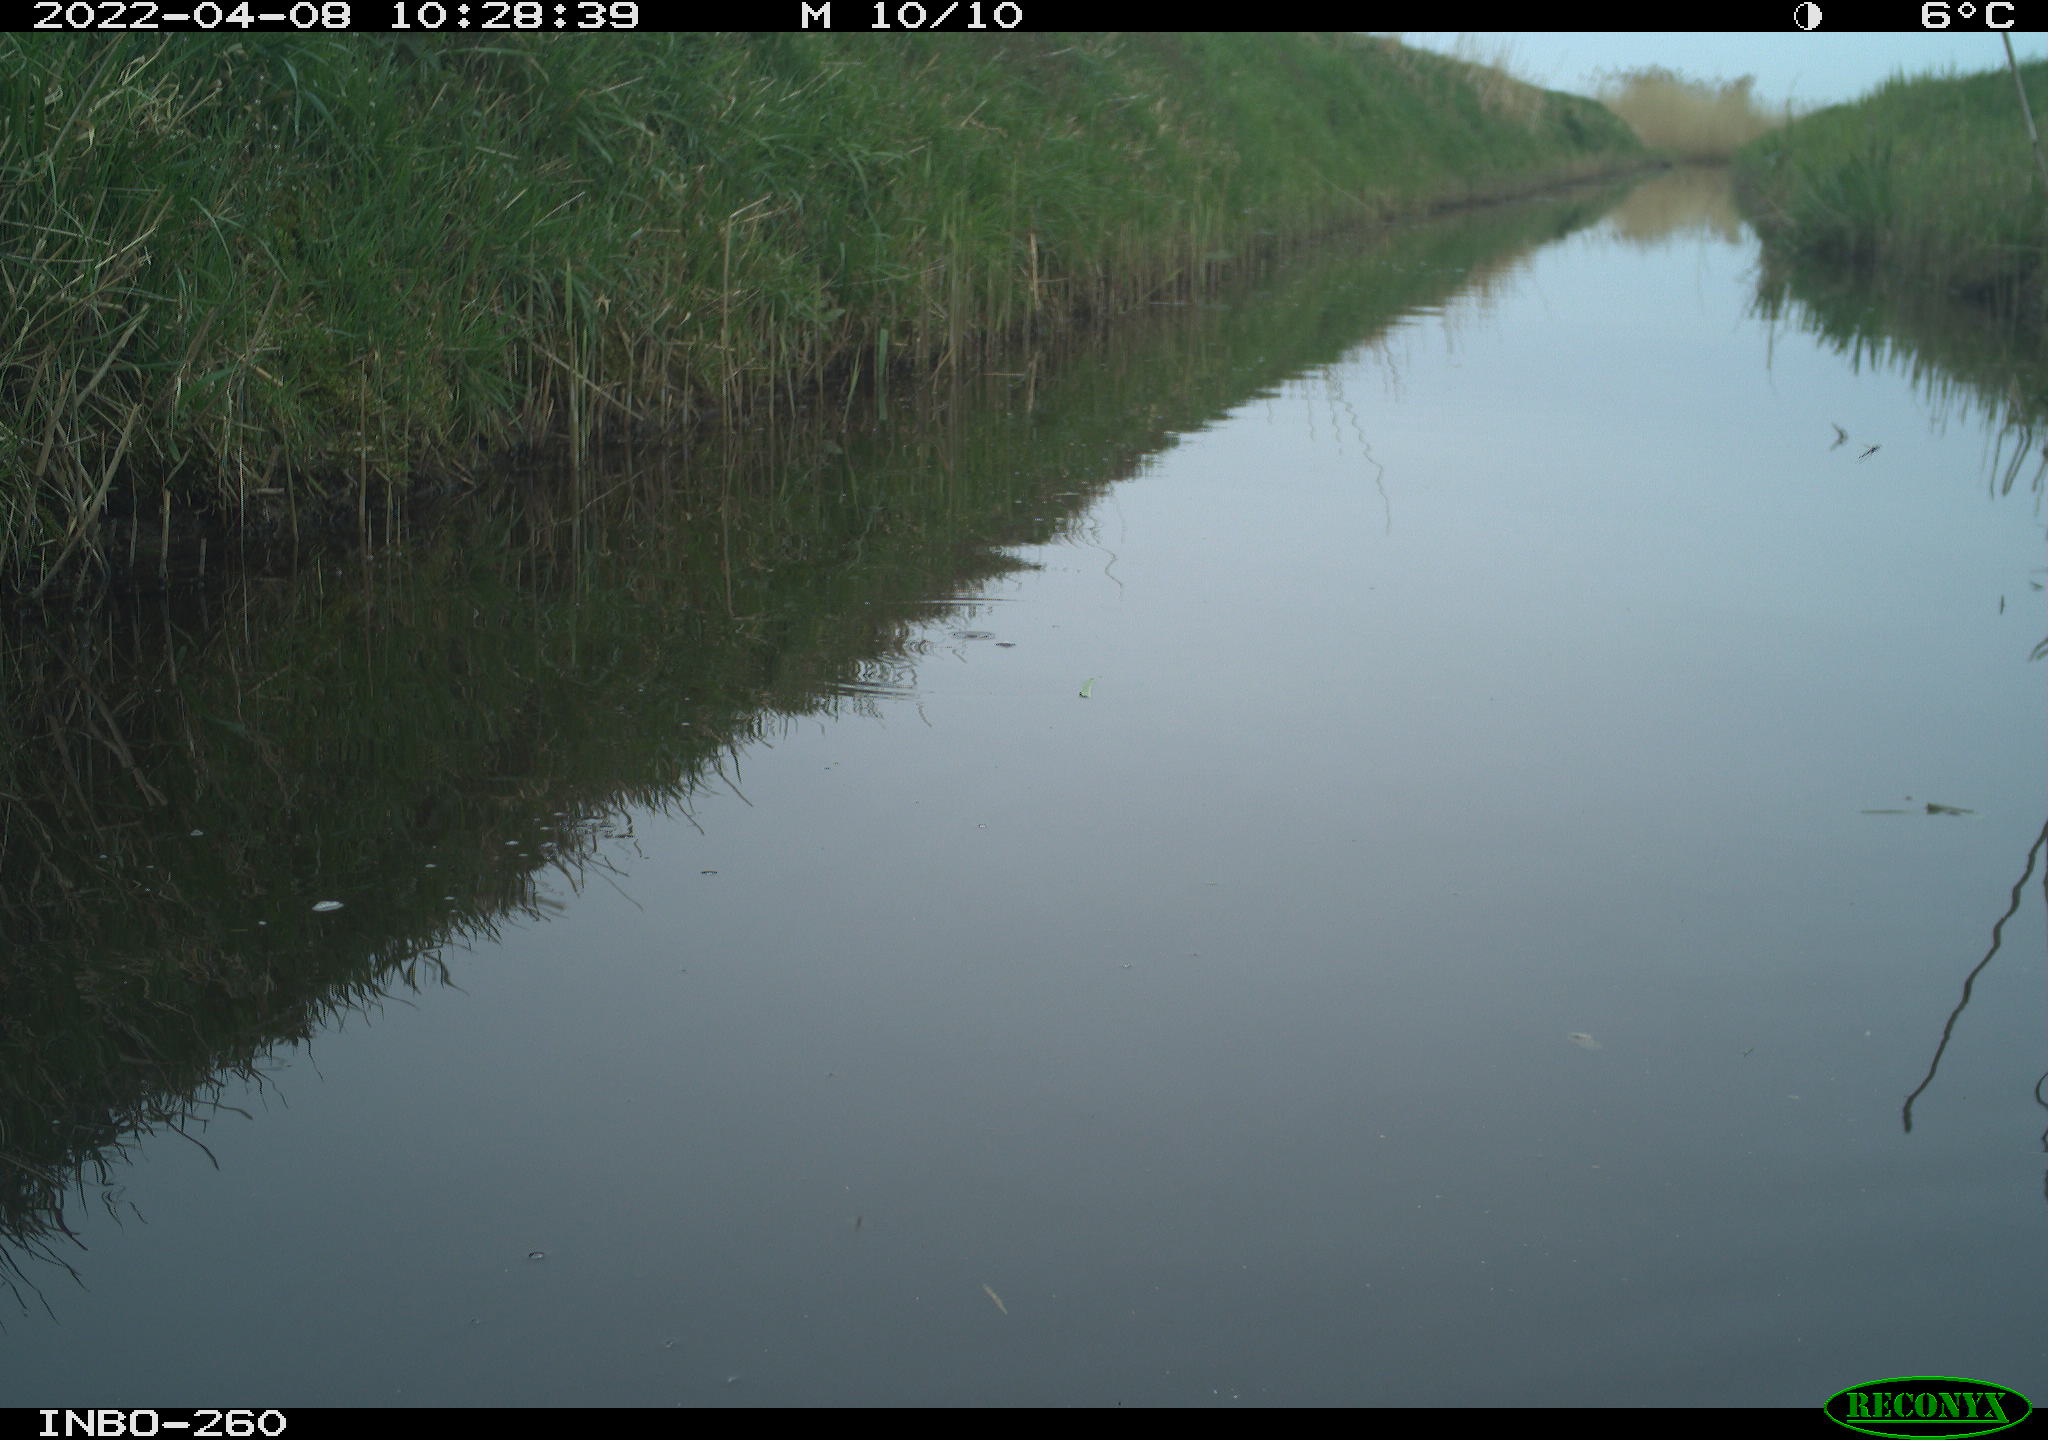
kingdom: Animalia
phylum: Chordata
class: Aves
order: Gruiformes
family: Rallidae
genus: Fulica
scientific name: Fulica atra
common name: Eurasian coot
